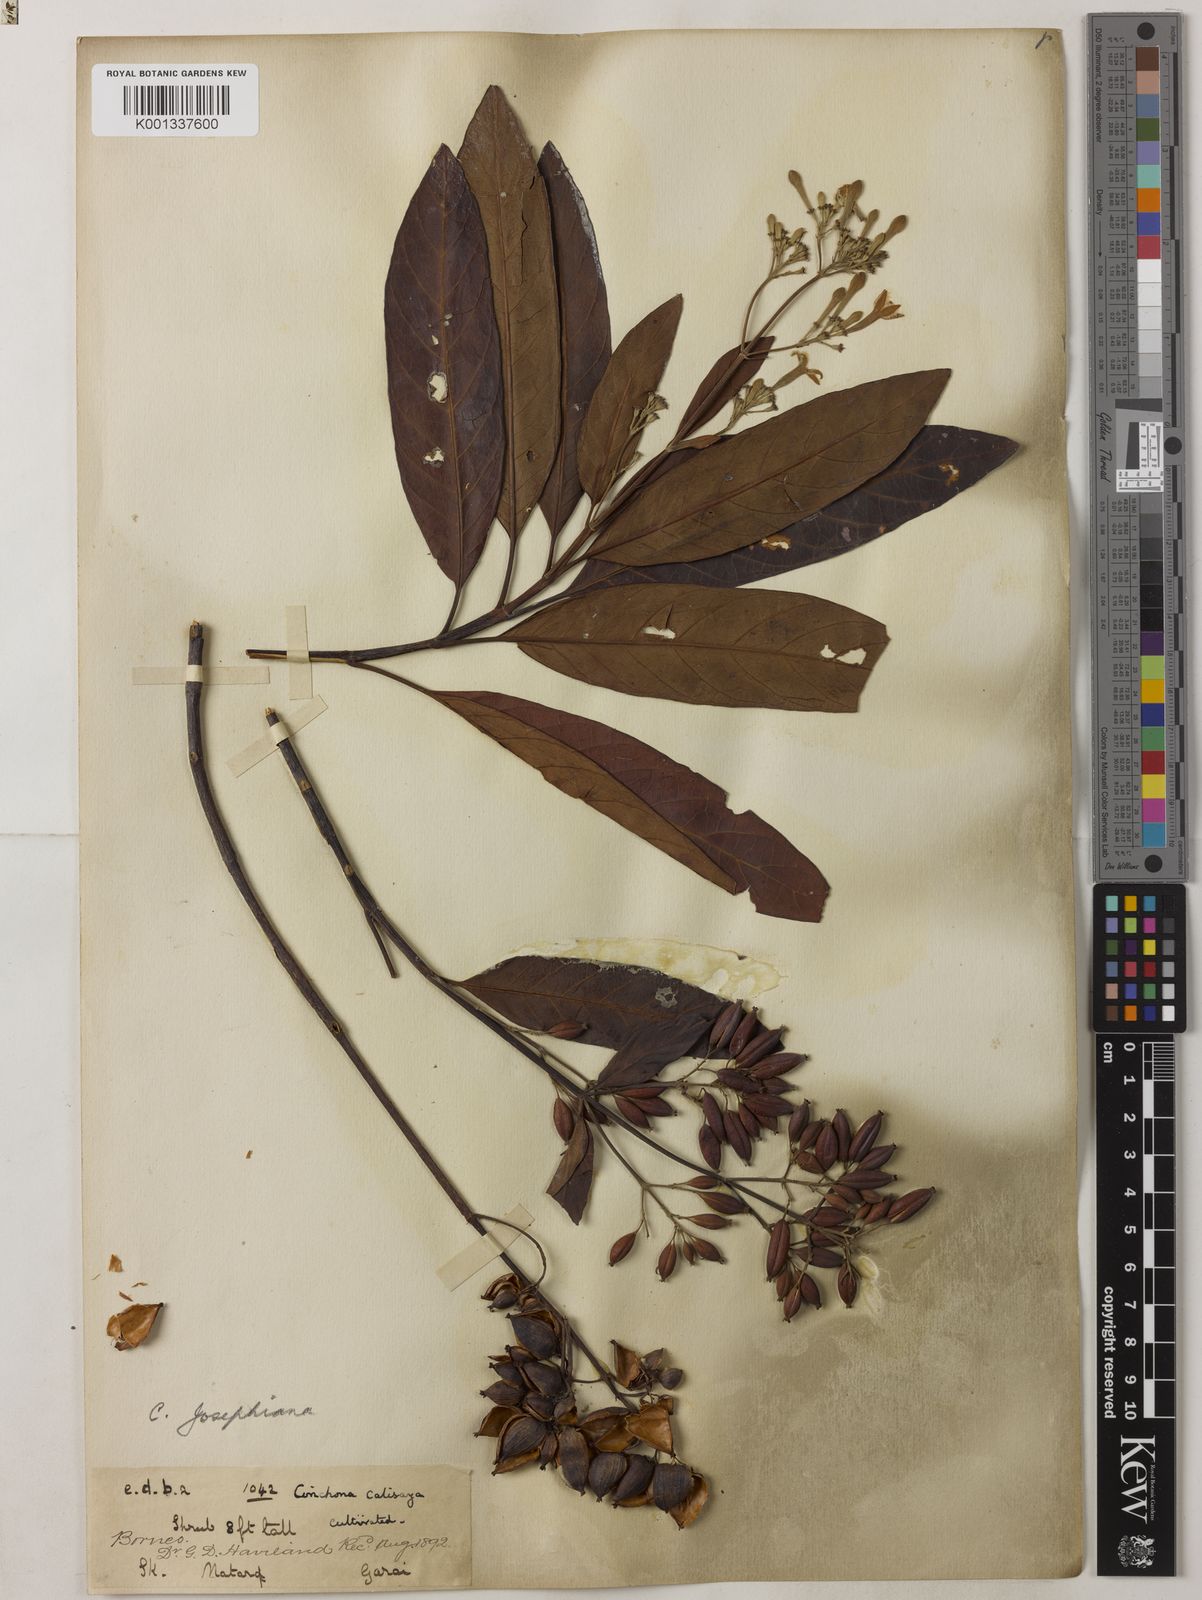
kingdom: Plantae
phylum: Tracheophyta
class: Magnoliopsida
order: Gentianales
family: Rubiaceae
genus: Cinchona
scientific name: Cinchona calisaya
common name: Ledgerbark
